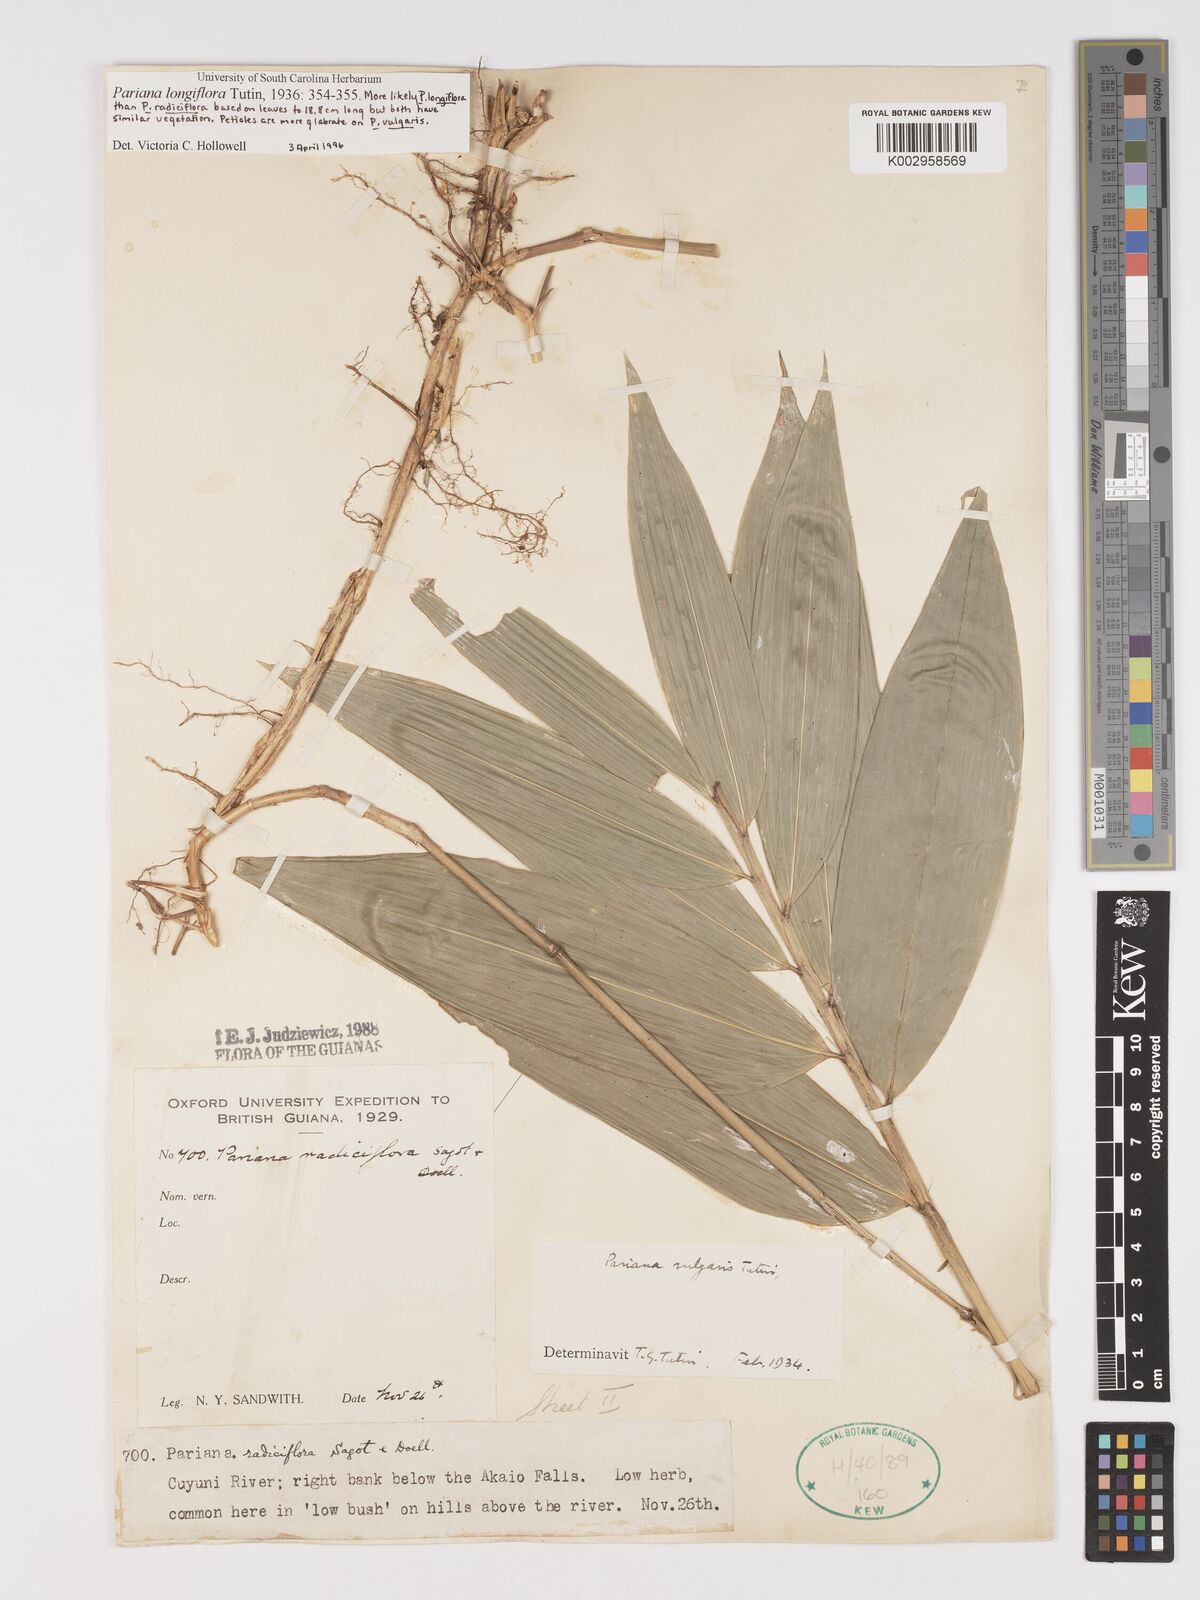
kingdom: Plantae
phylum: Tracheophyta
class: Liliopsida
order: Poales
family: Poaceae
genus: Pariana
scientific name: Pariana radiciflora
